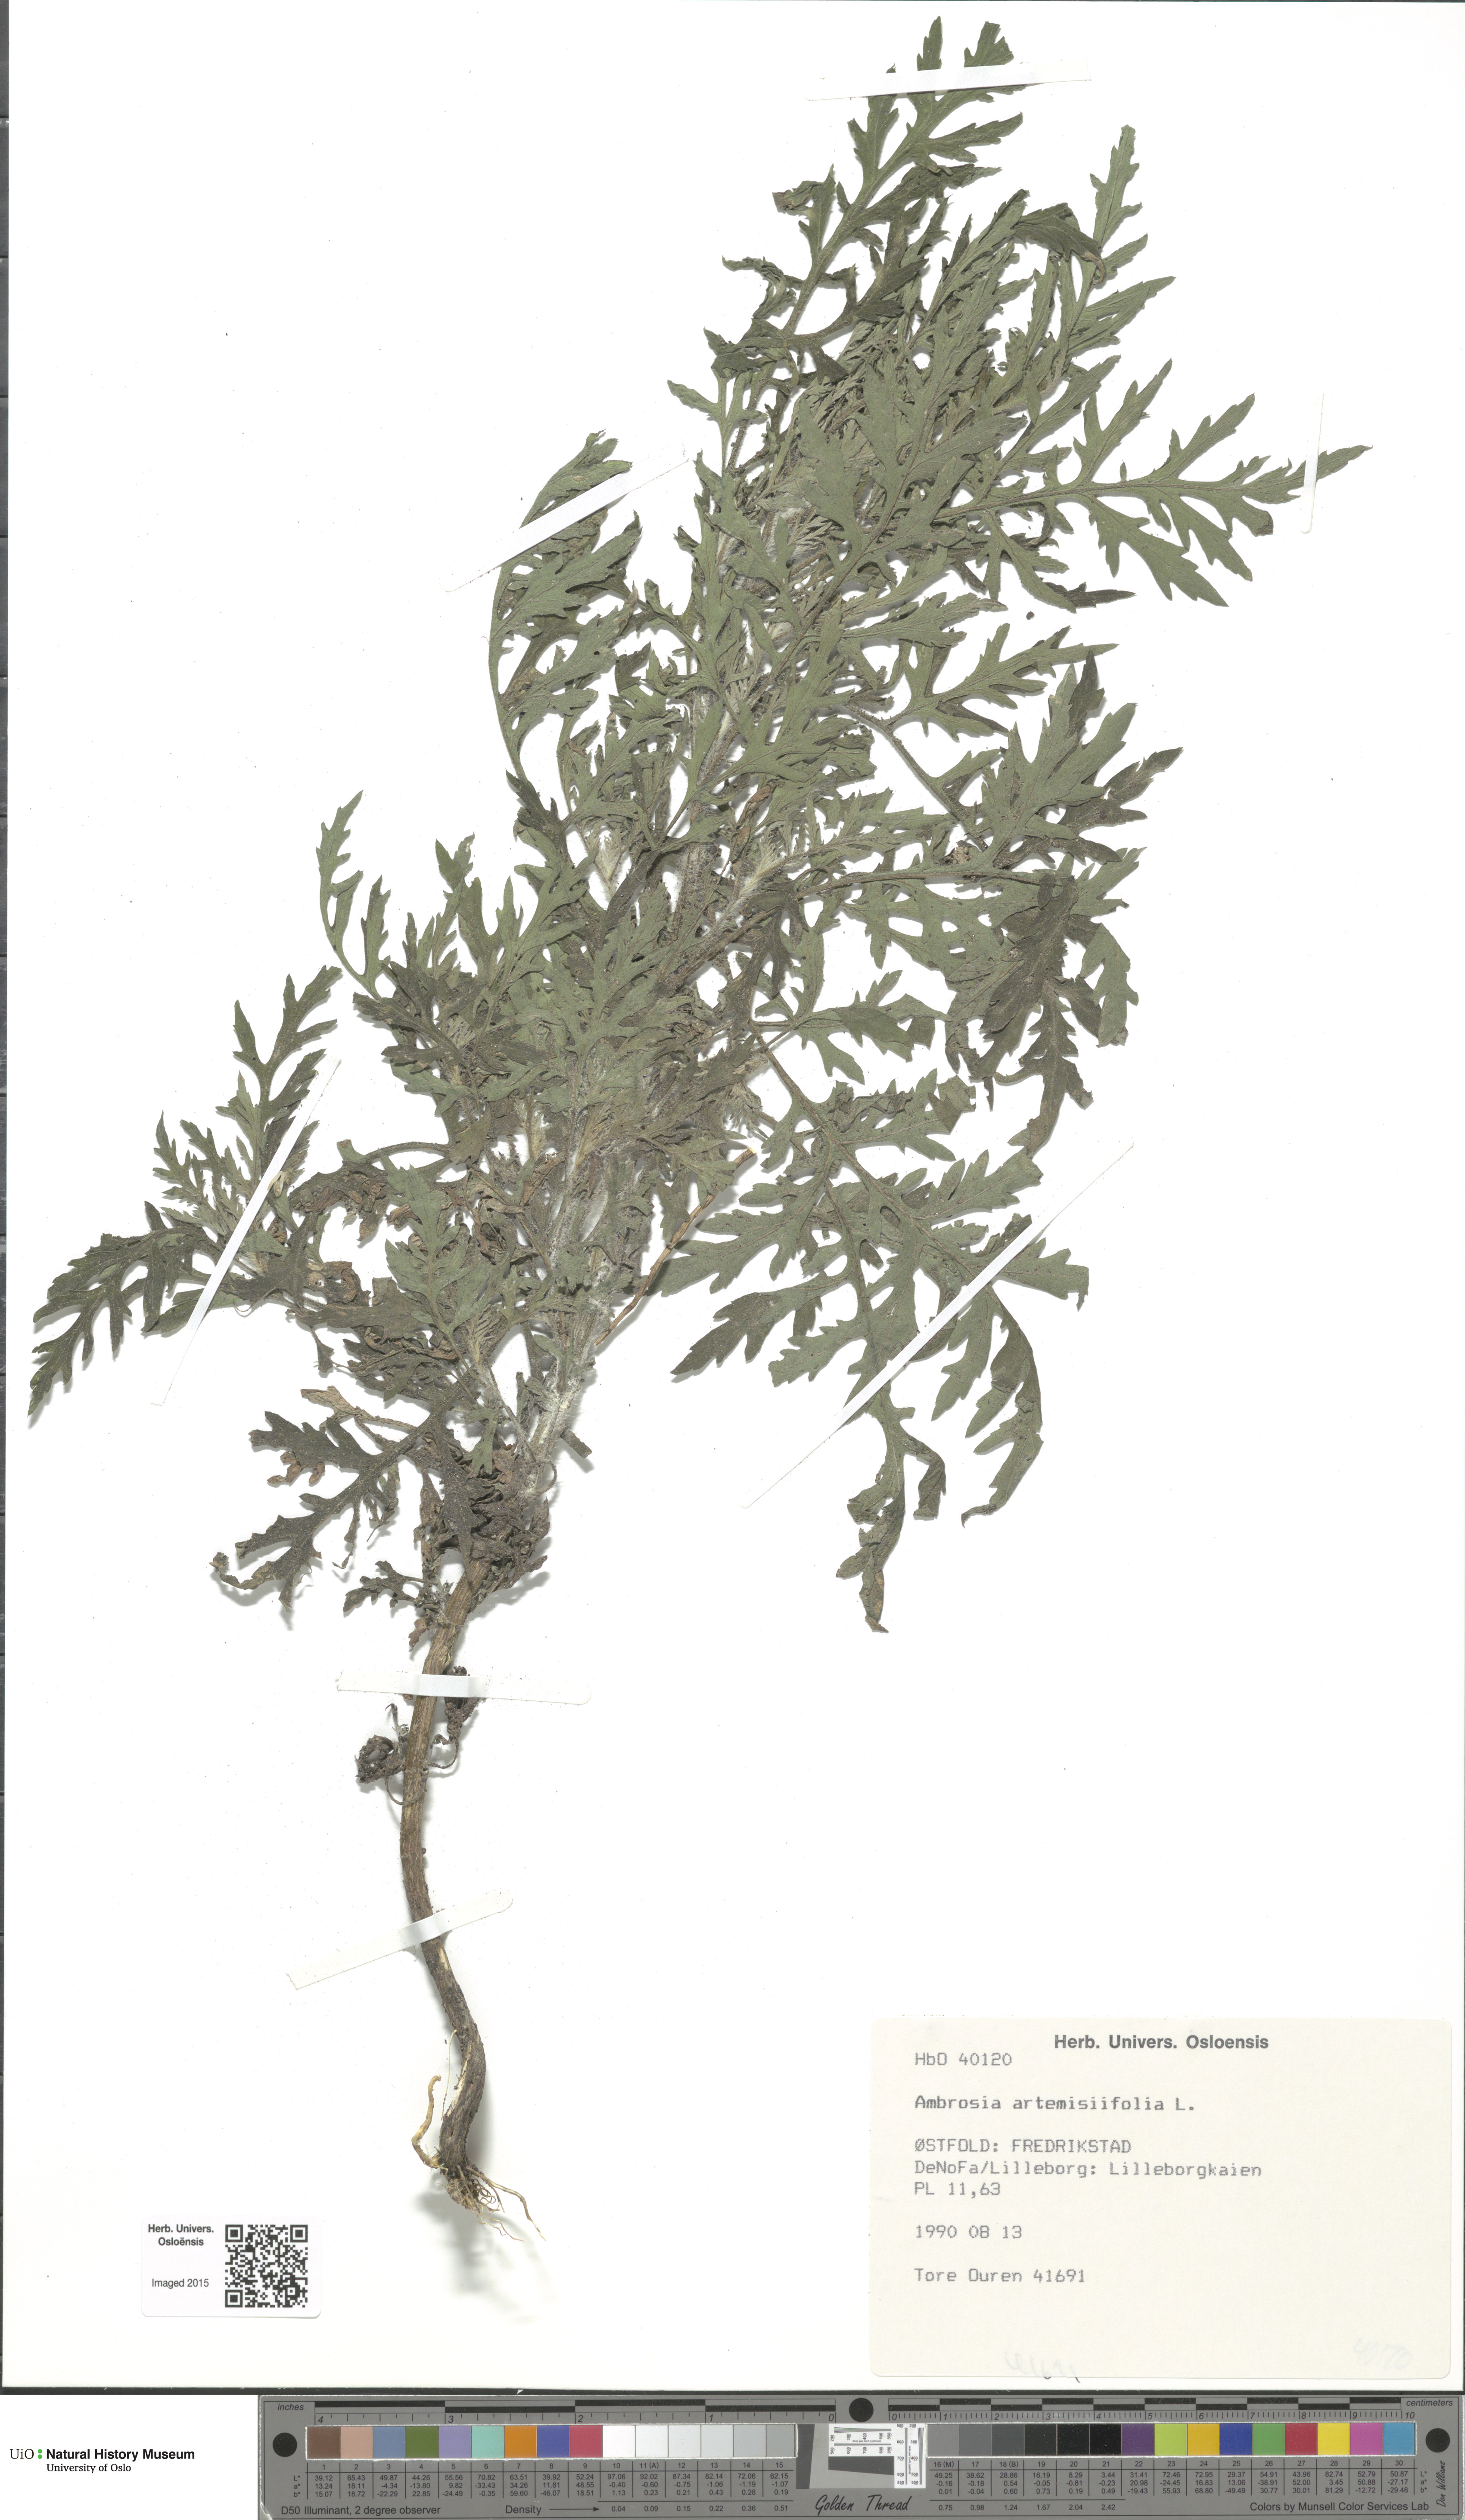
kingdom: Plantae
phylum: Tracheophyta
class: Magnoliopsida
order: Asterales
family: Asteraceae
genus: Ambrosia
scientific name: Ambrosia artemisiifolia
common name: Annual ragweed
